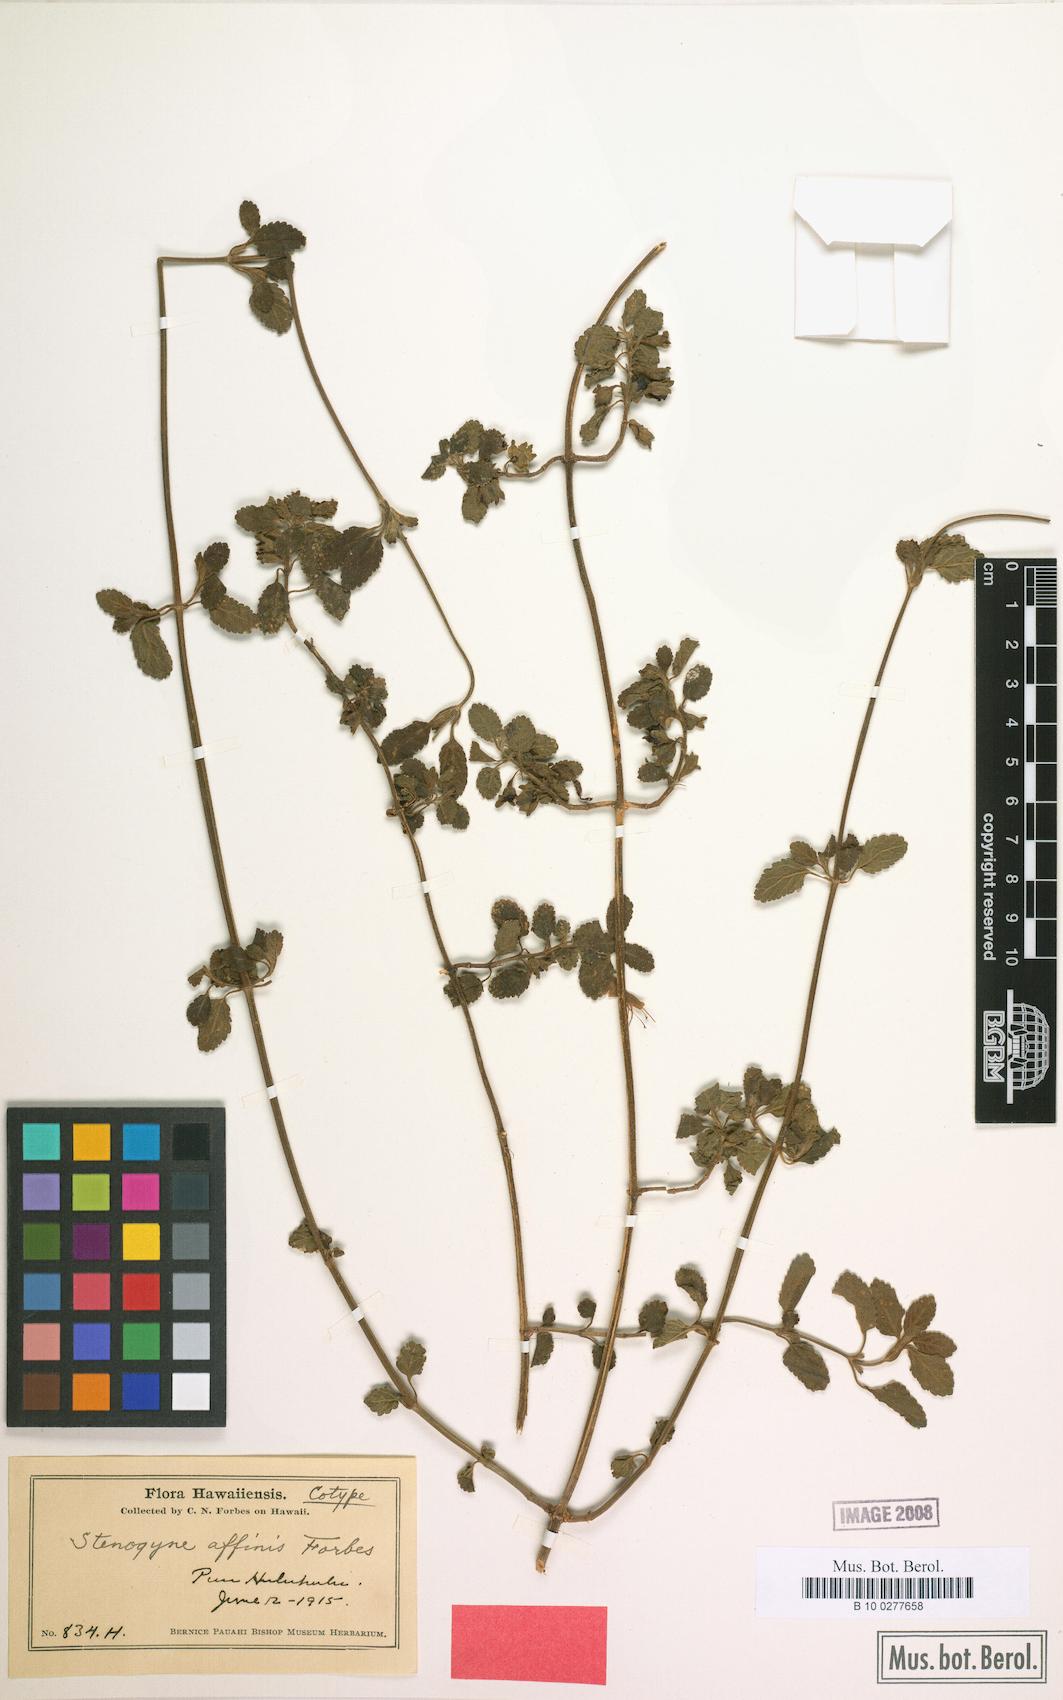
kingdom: Plantae
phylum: Tracheophyta
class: Magnoliopsida
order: Lamiales
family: Lamiaceae
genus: Stenogyne
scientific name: Stenogyne microphylla
